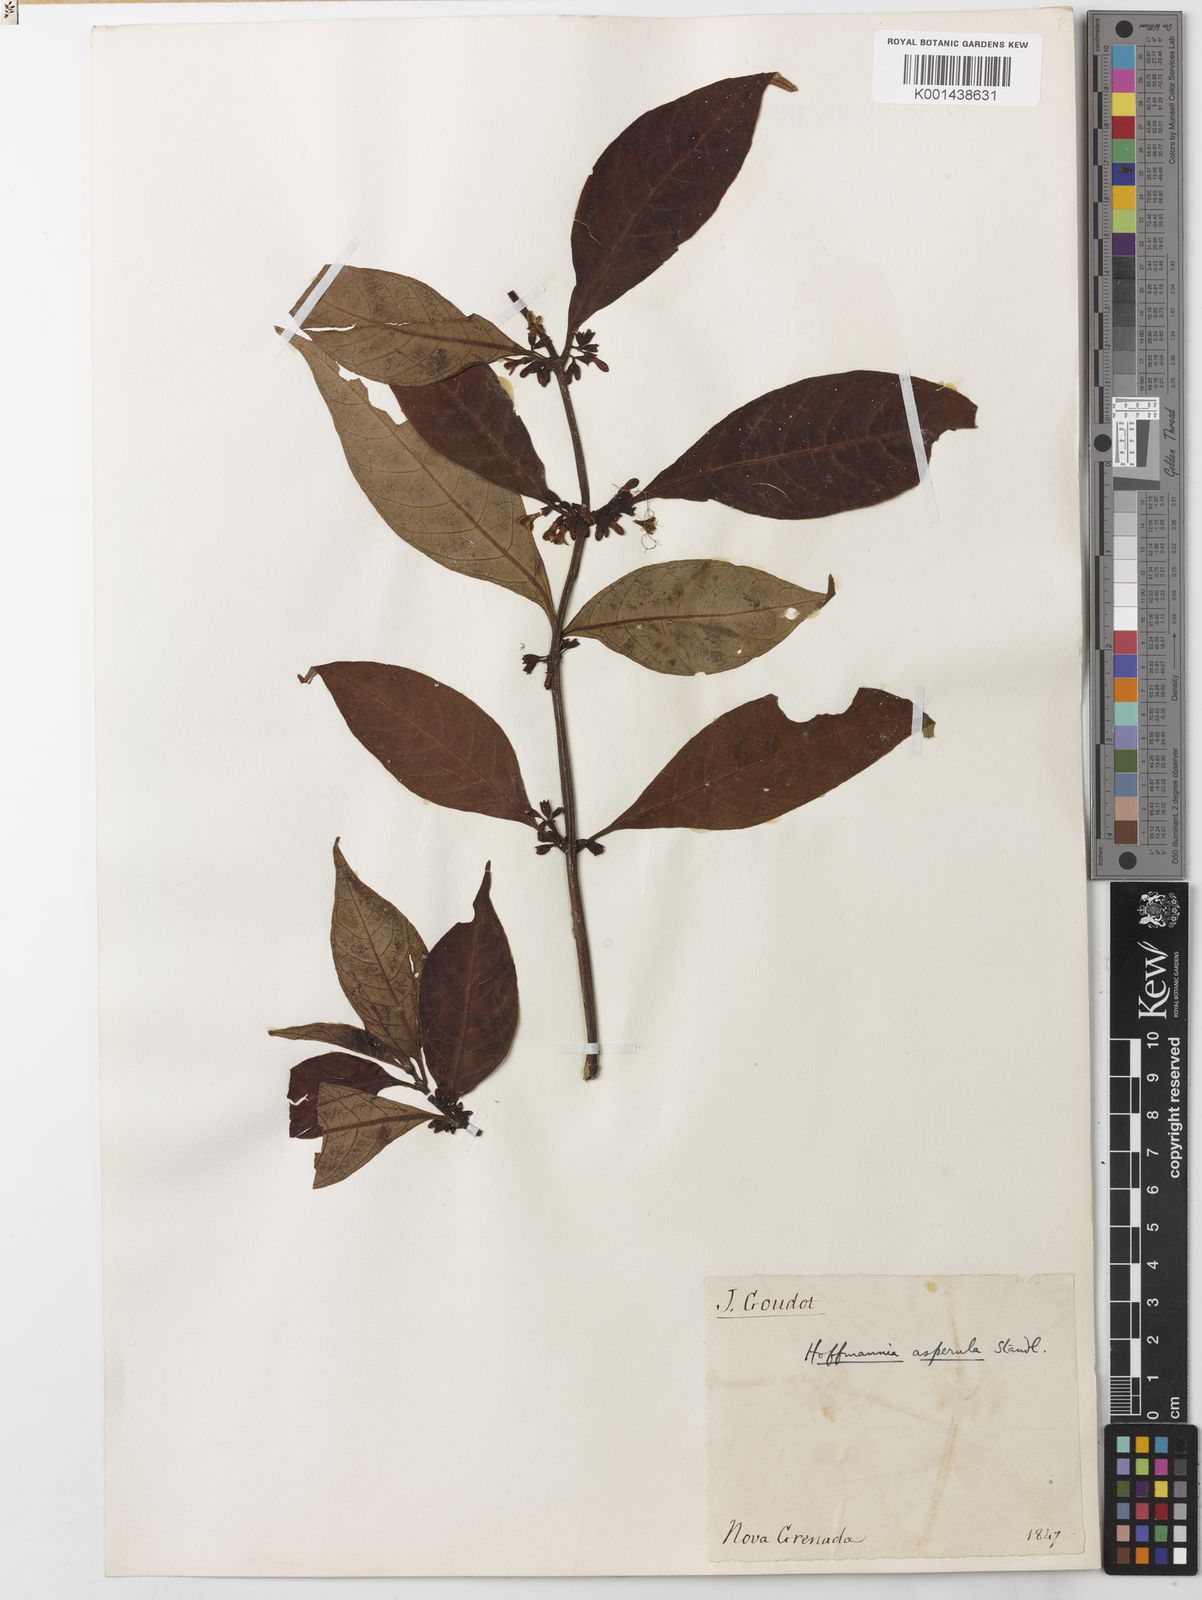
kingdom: Plantae
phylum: Tracheophyta
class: Magnoliopsida
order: Gentianales
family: Rubiaceae
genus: Hoffmannia
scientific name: Hoffmannia asperula
